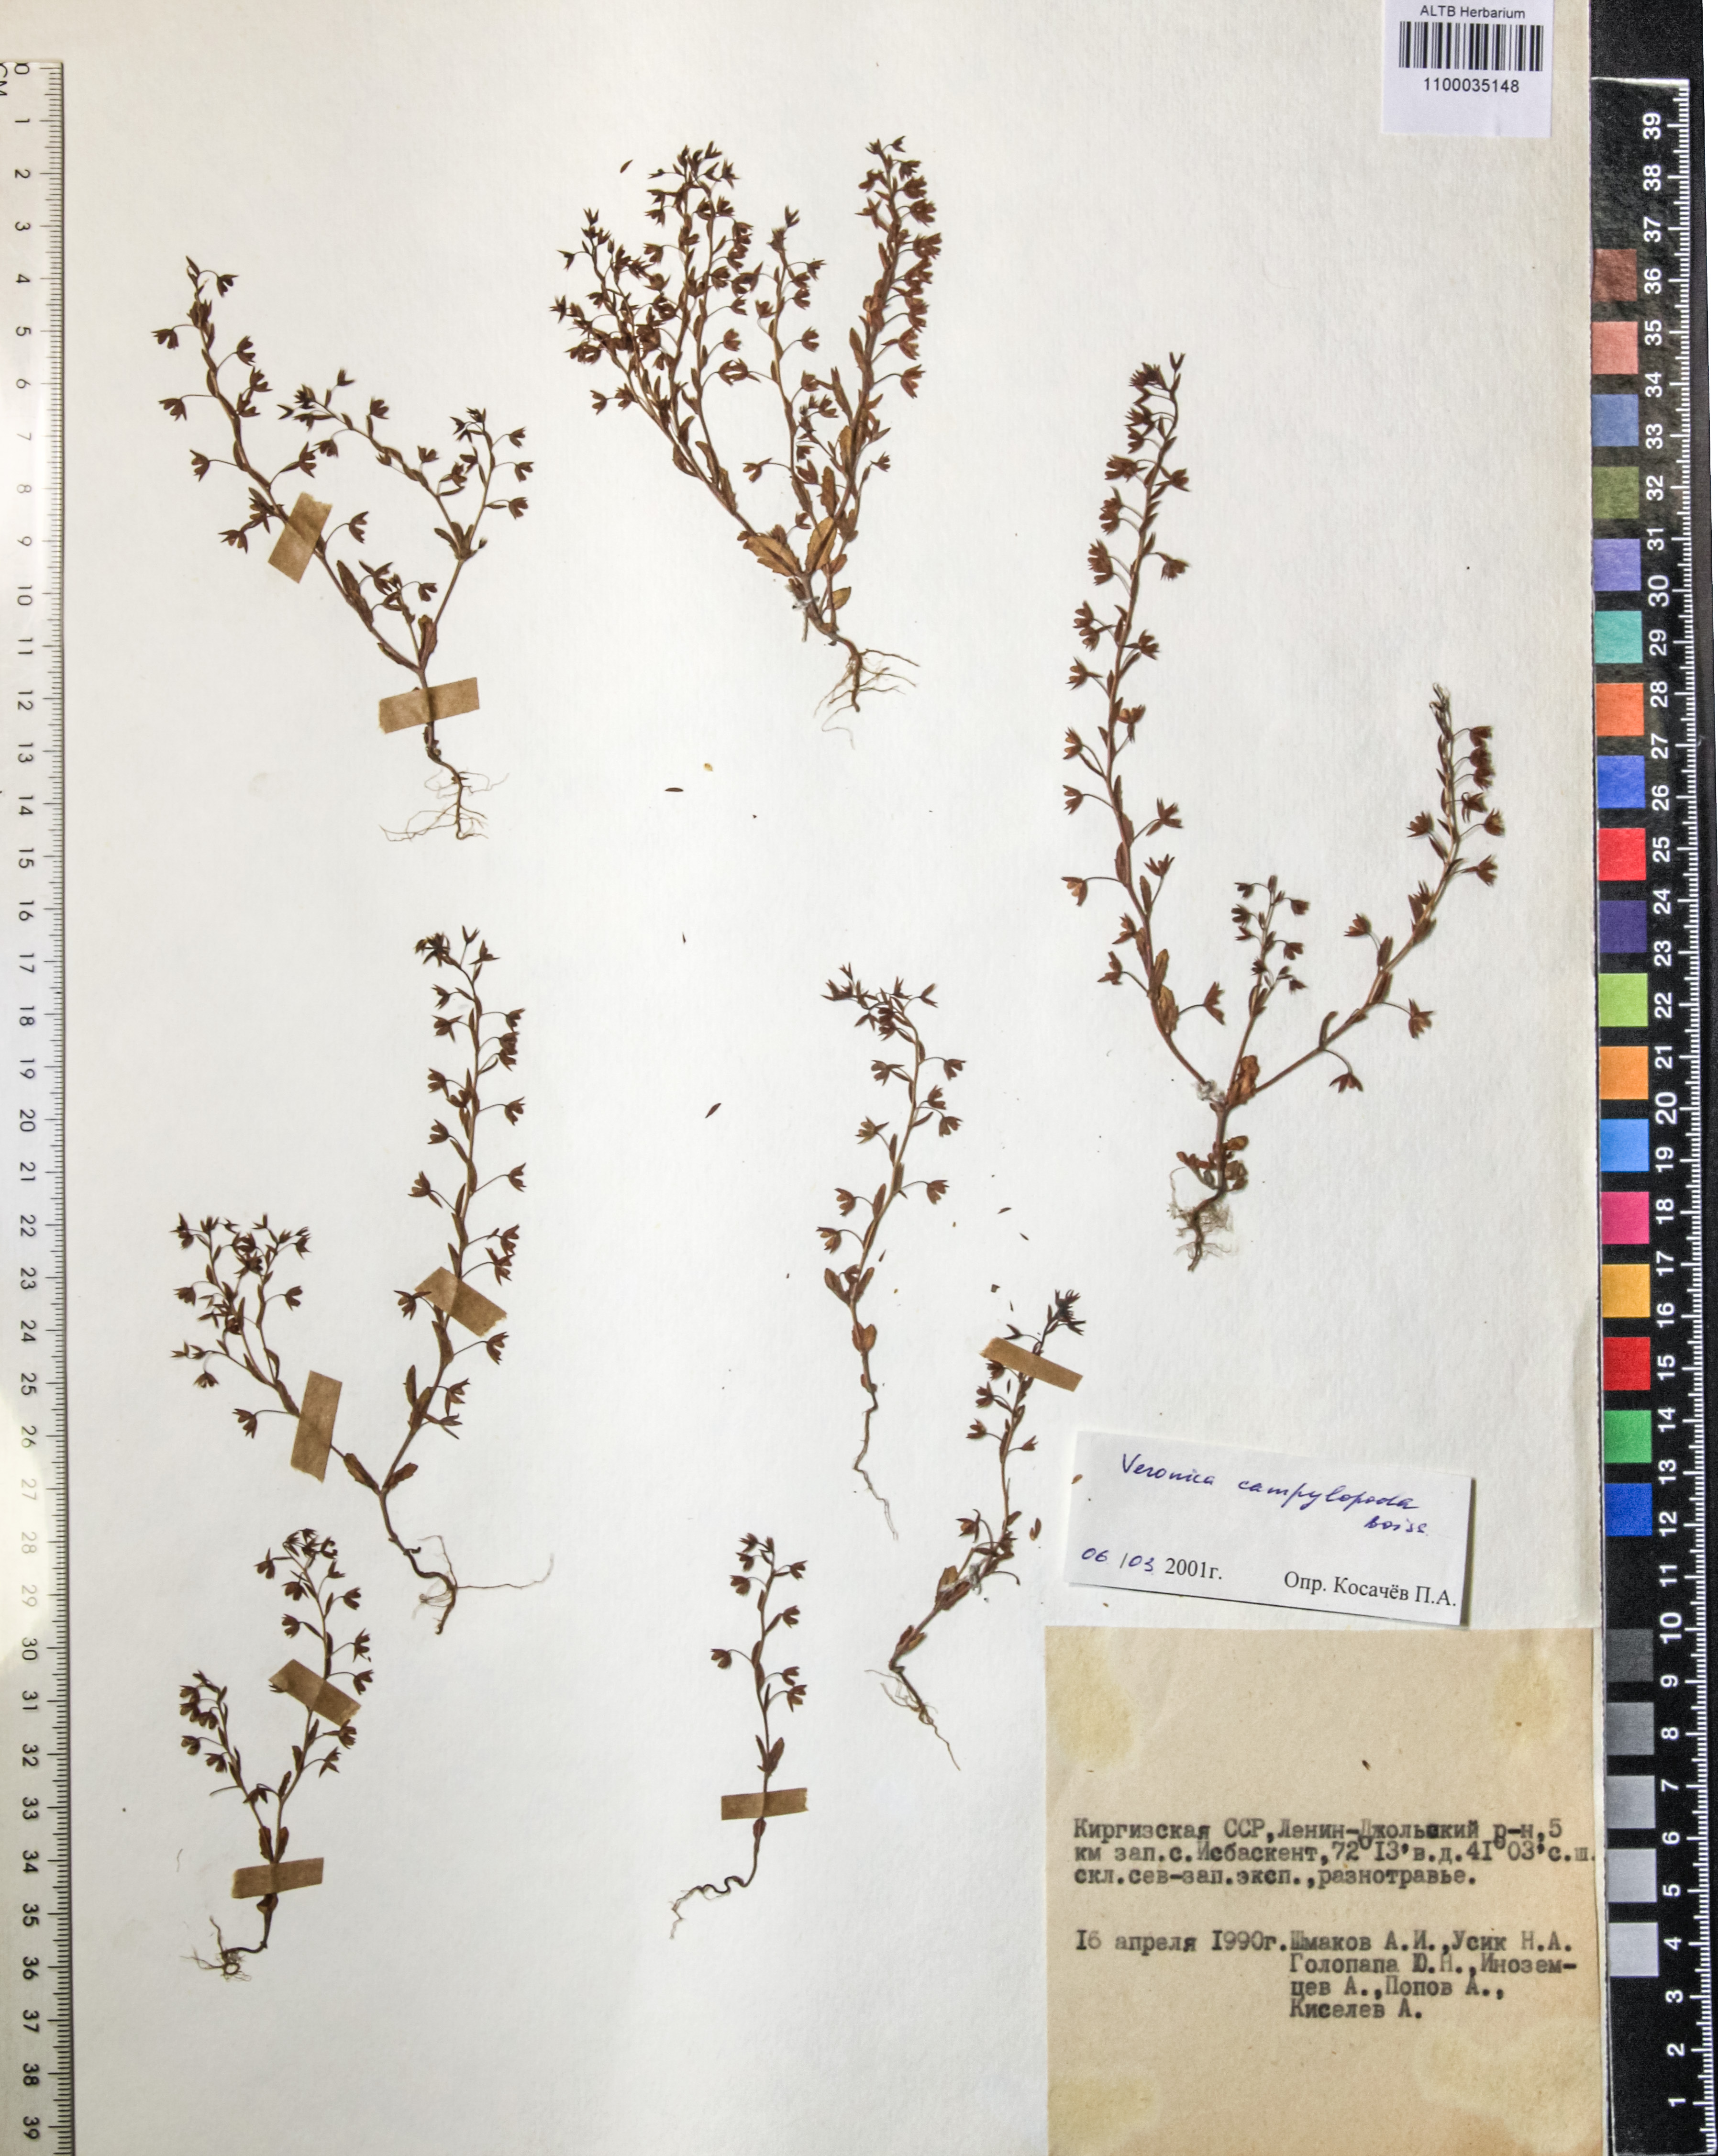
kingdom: Plantae
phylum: Tracheophyta
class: Magnoliopsida
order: Lamiales
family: Plantaginaceae
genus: Veronica
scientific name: Veronica campylopoda
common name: Bent-foot speedwell
